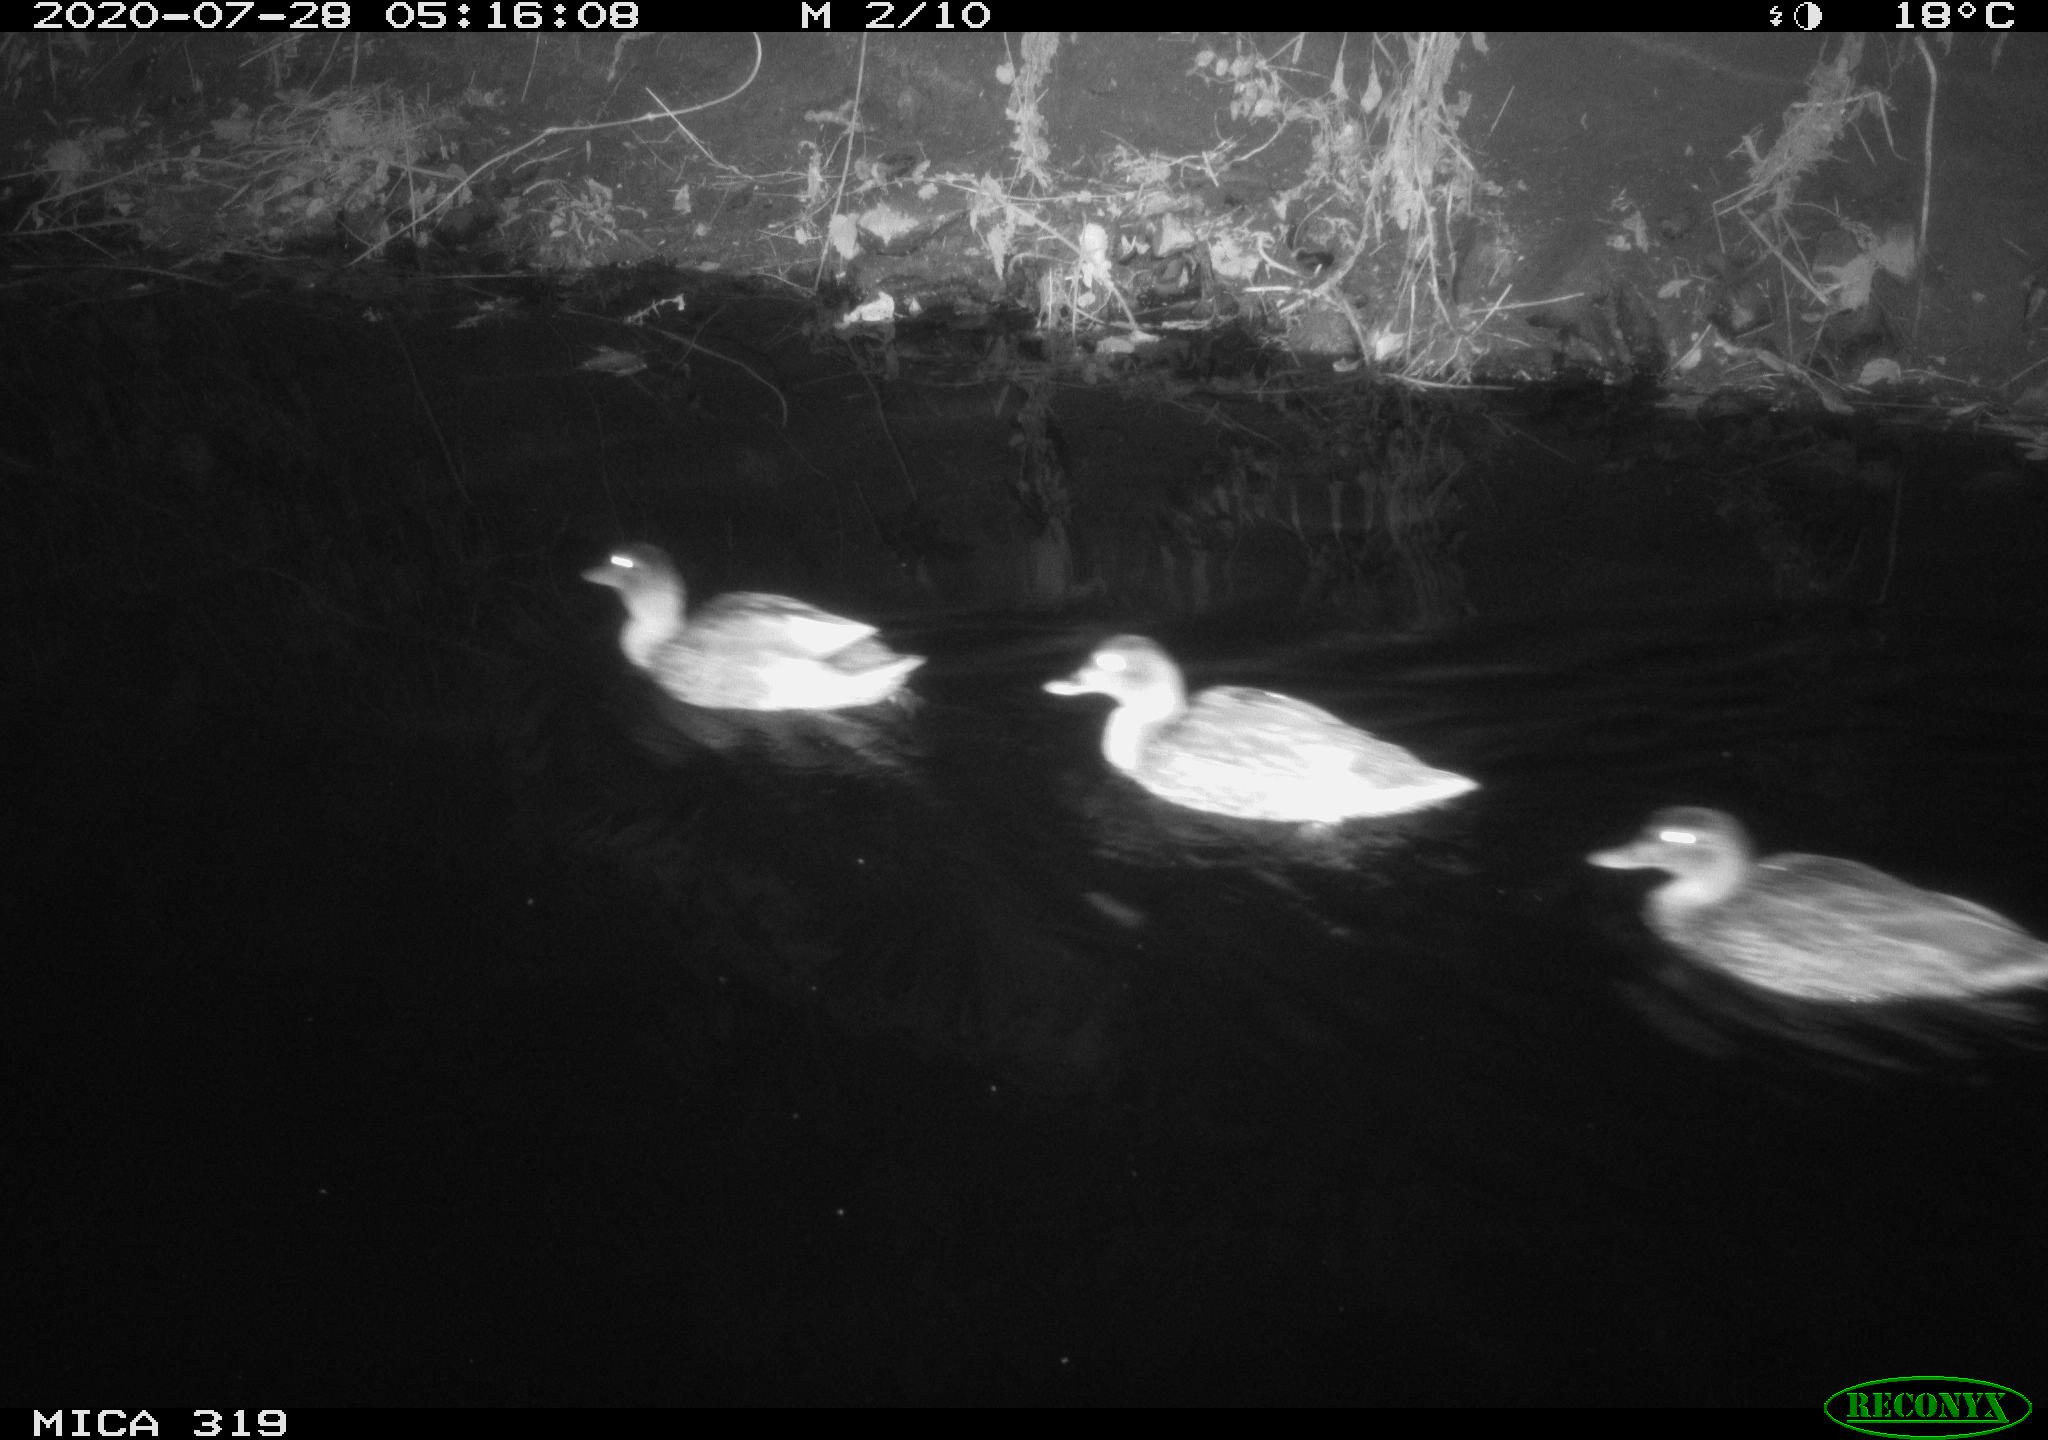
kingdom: Animalia
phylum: Chordata
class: Aves
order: Anseriformes
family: Anatidae
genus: Anas
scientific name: Anas platyrhynchos
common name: Mallard
